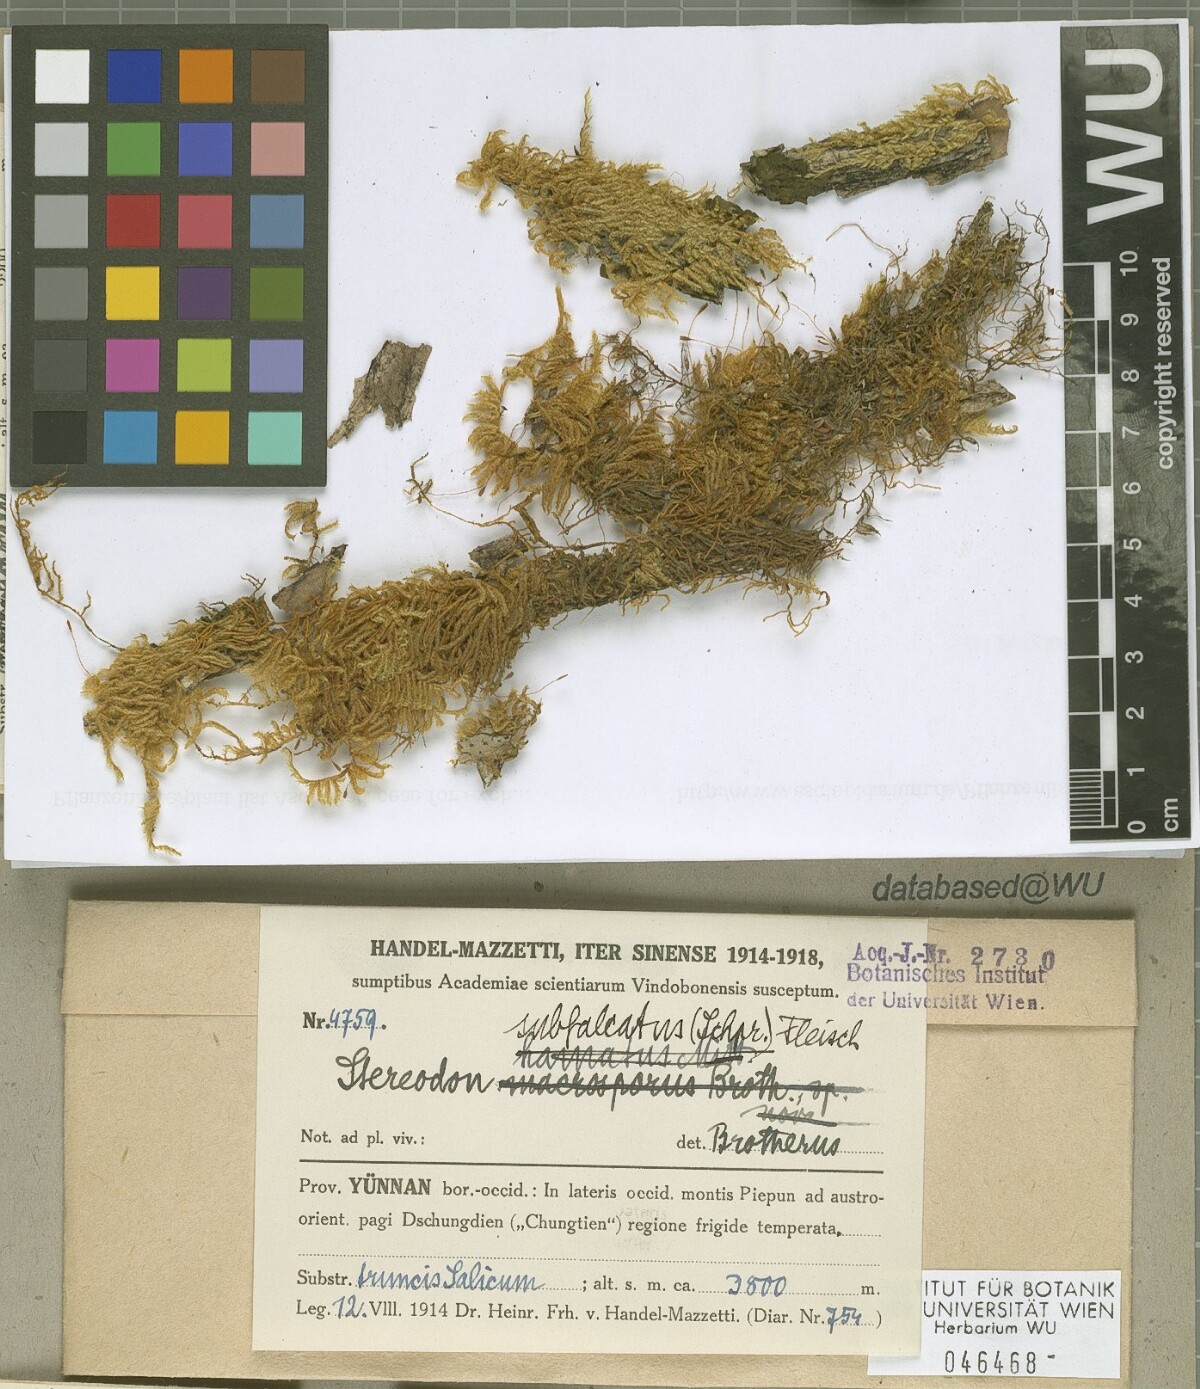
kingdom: Plantae
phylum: Bryophyta
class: Bryopsida
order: Hypnales
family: Pylaisiaceae
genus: Pylaisia
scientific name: Pylaisia falcata
